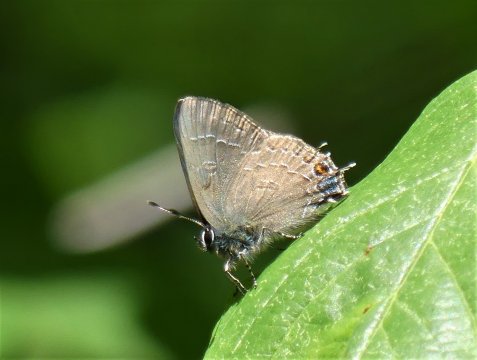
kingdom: Animalia
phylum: Arthropoda
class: Insecta
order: Lepidoptera
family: Lycaenidae
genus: Satyrium
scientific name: Satyrium calanus
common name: Banded Hairstreak
